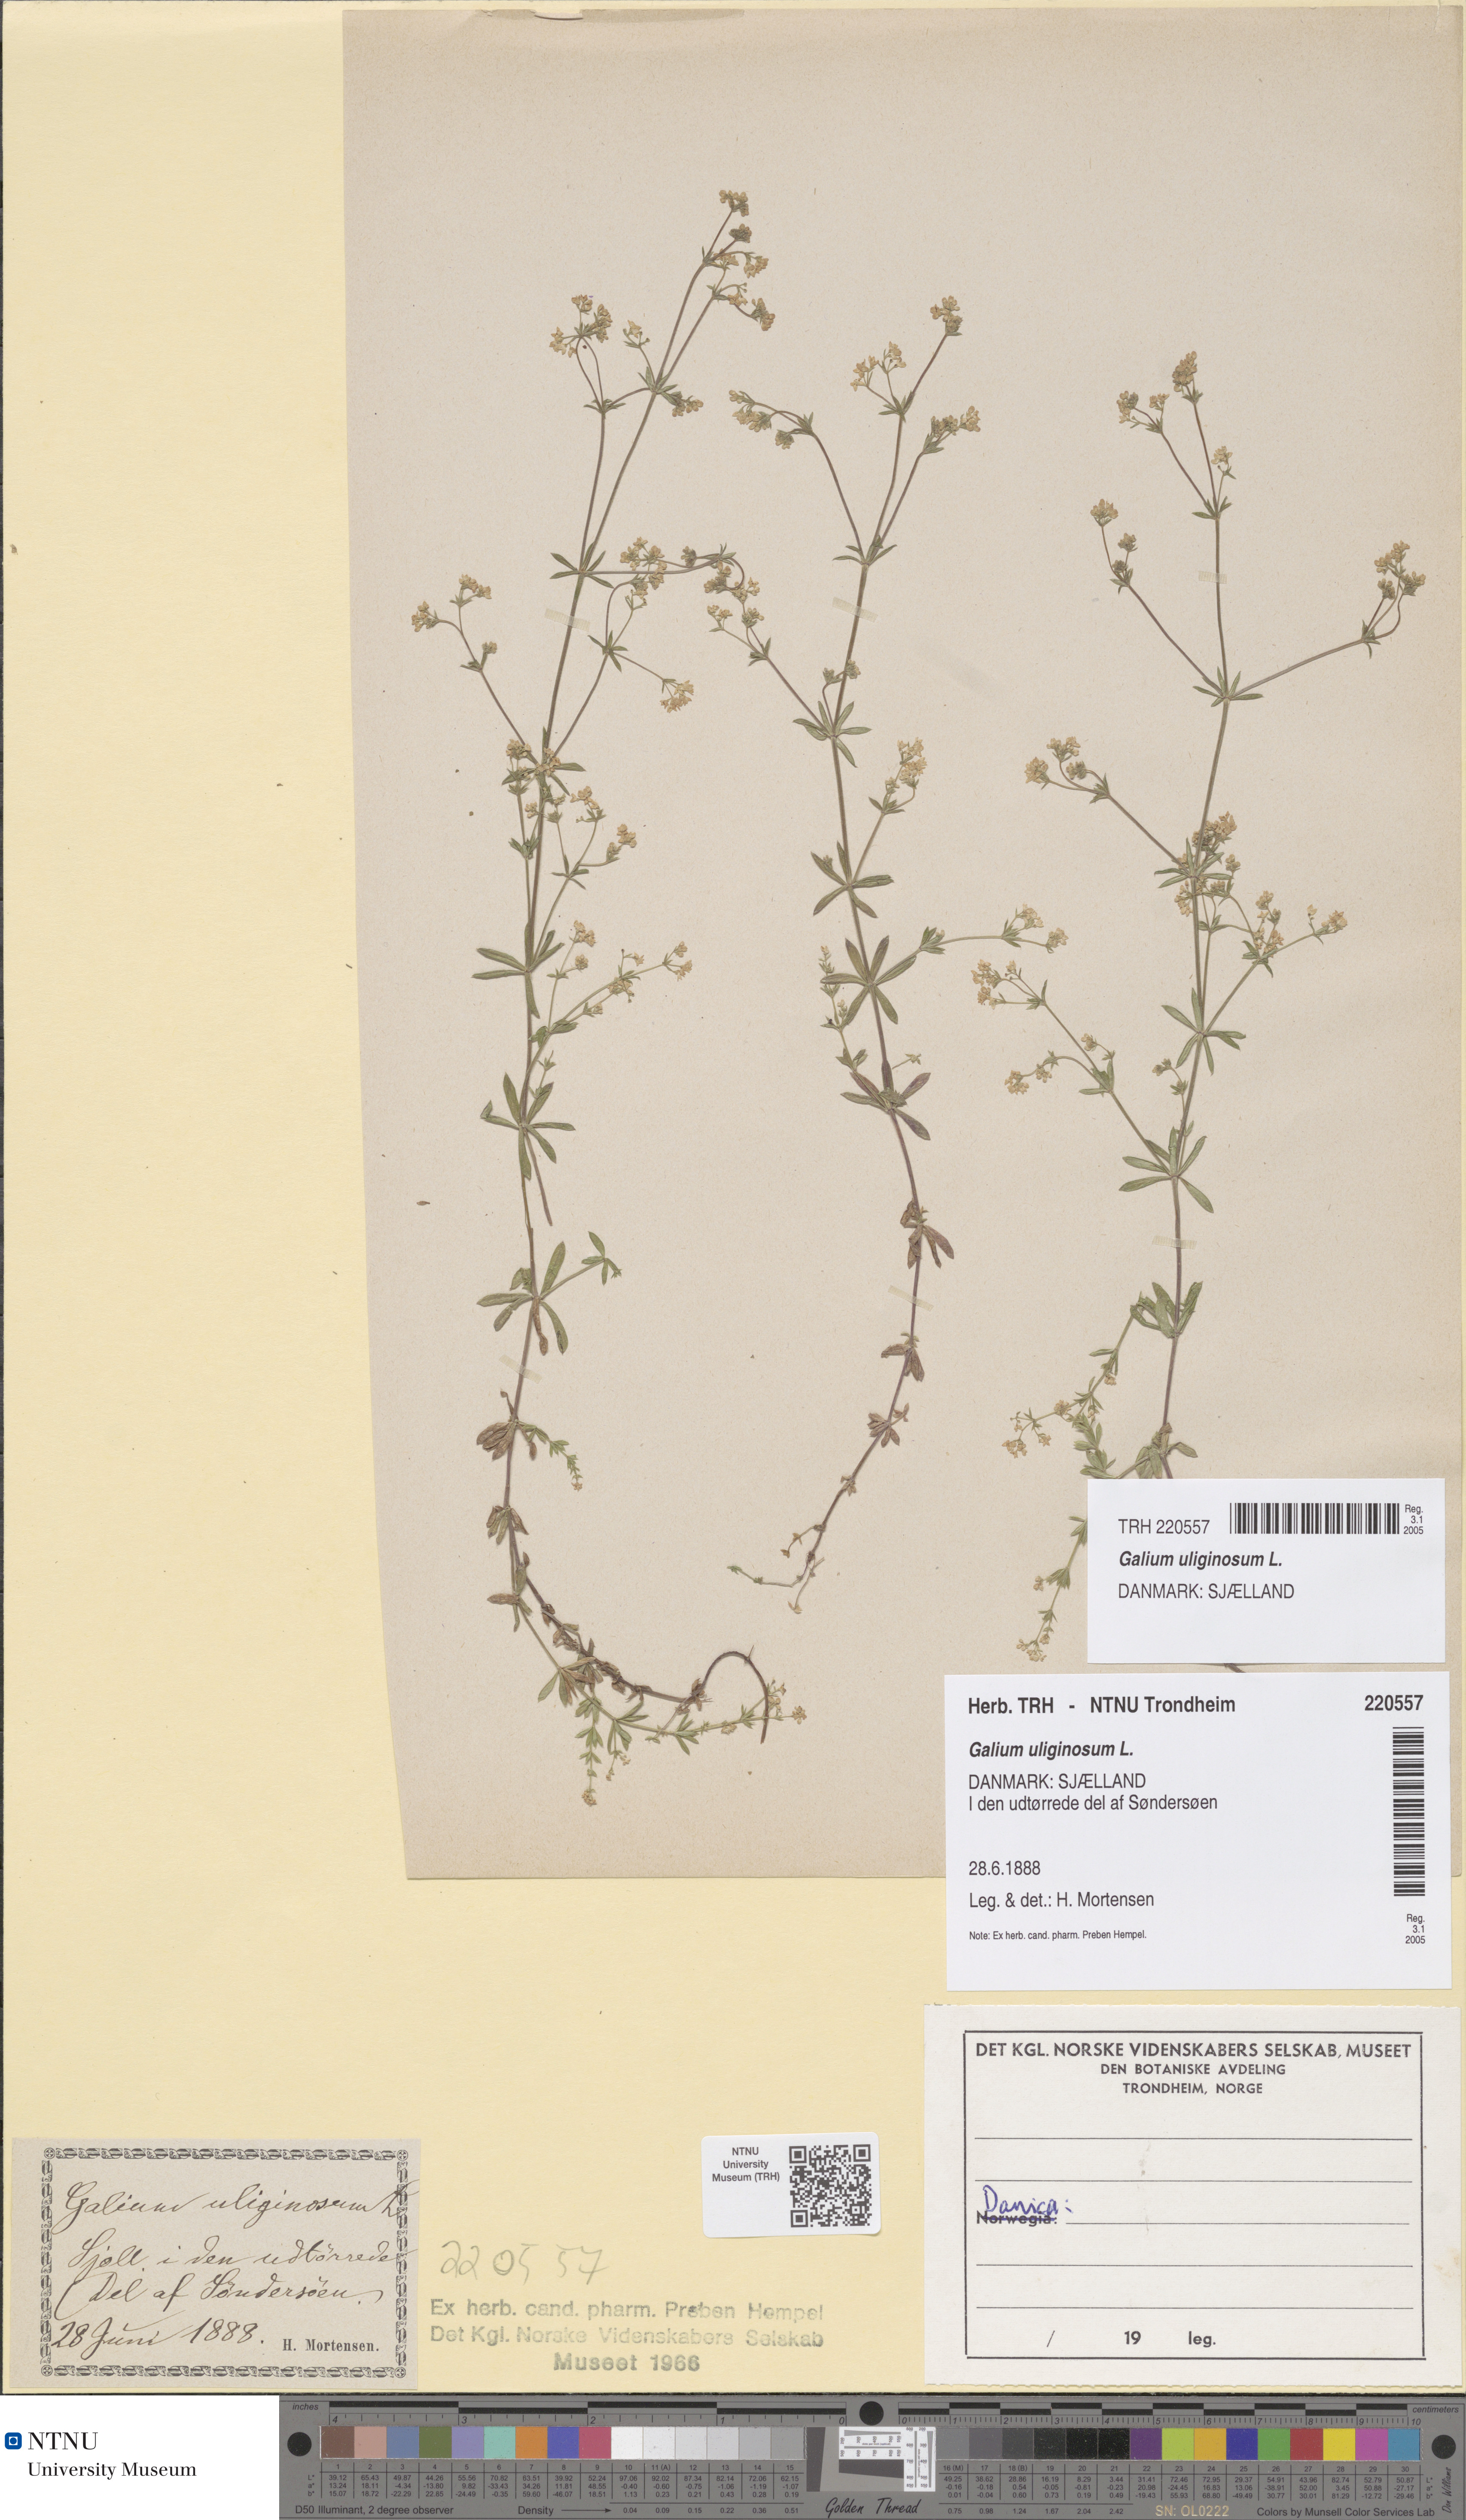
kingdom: Plantae
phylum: Tracheophyta
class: Magnoliopsida
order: Gentianales
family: Rubiaceae
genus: Galium
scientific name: Galium uliginosum
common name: Fen bedstraw
